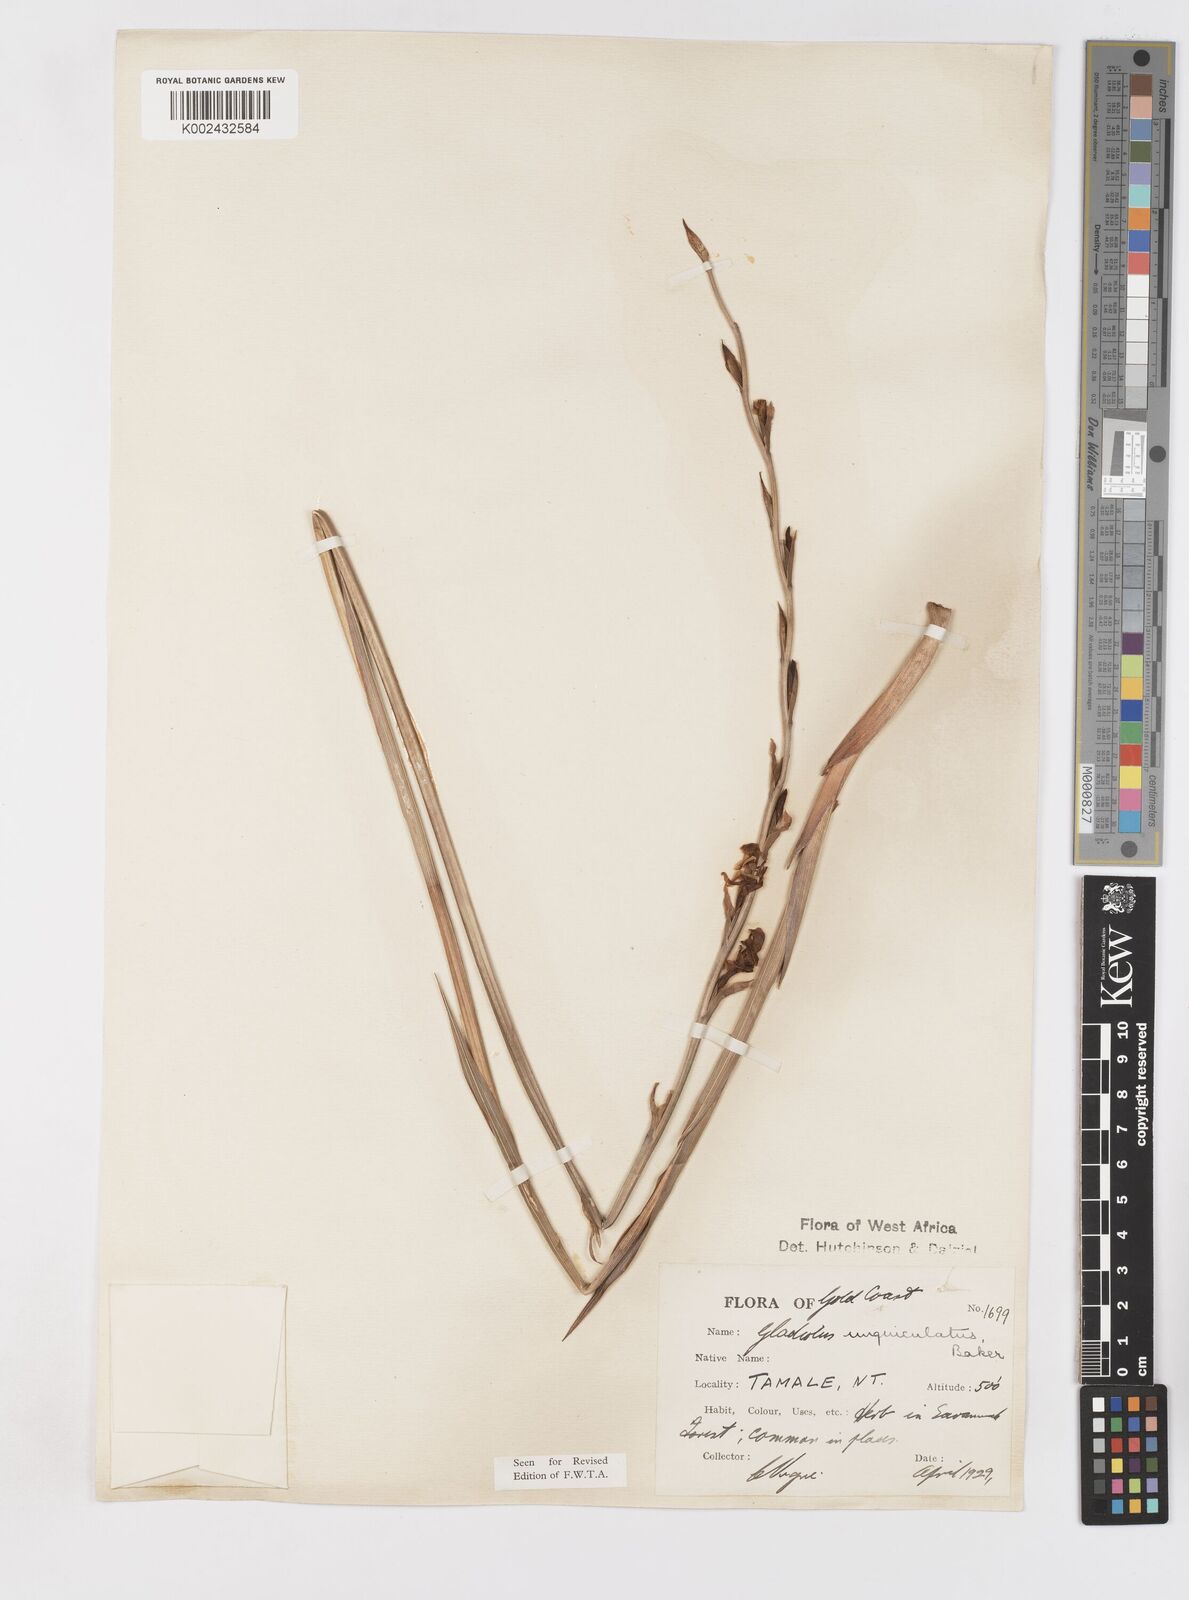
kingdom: Plantae
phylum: Tracheophyta
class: Liliopsida
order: Asparagales
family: Iridaceae
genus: Gladiolus
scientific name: Gladiolus unguiculatus
